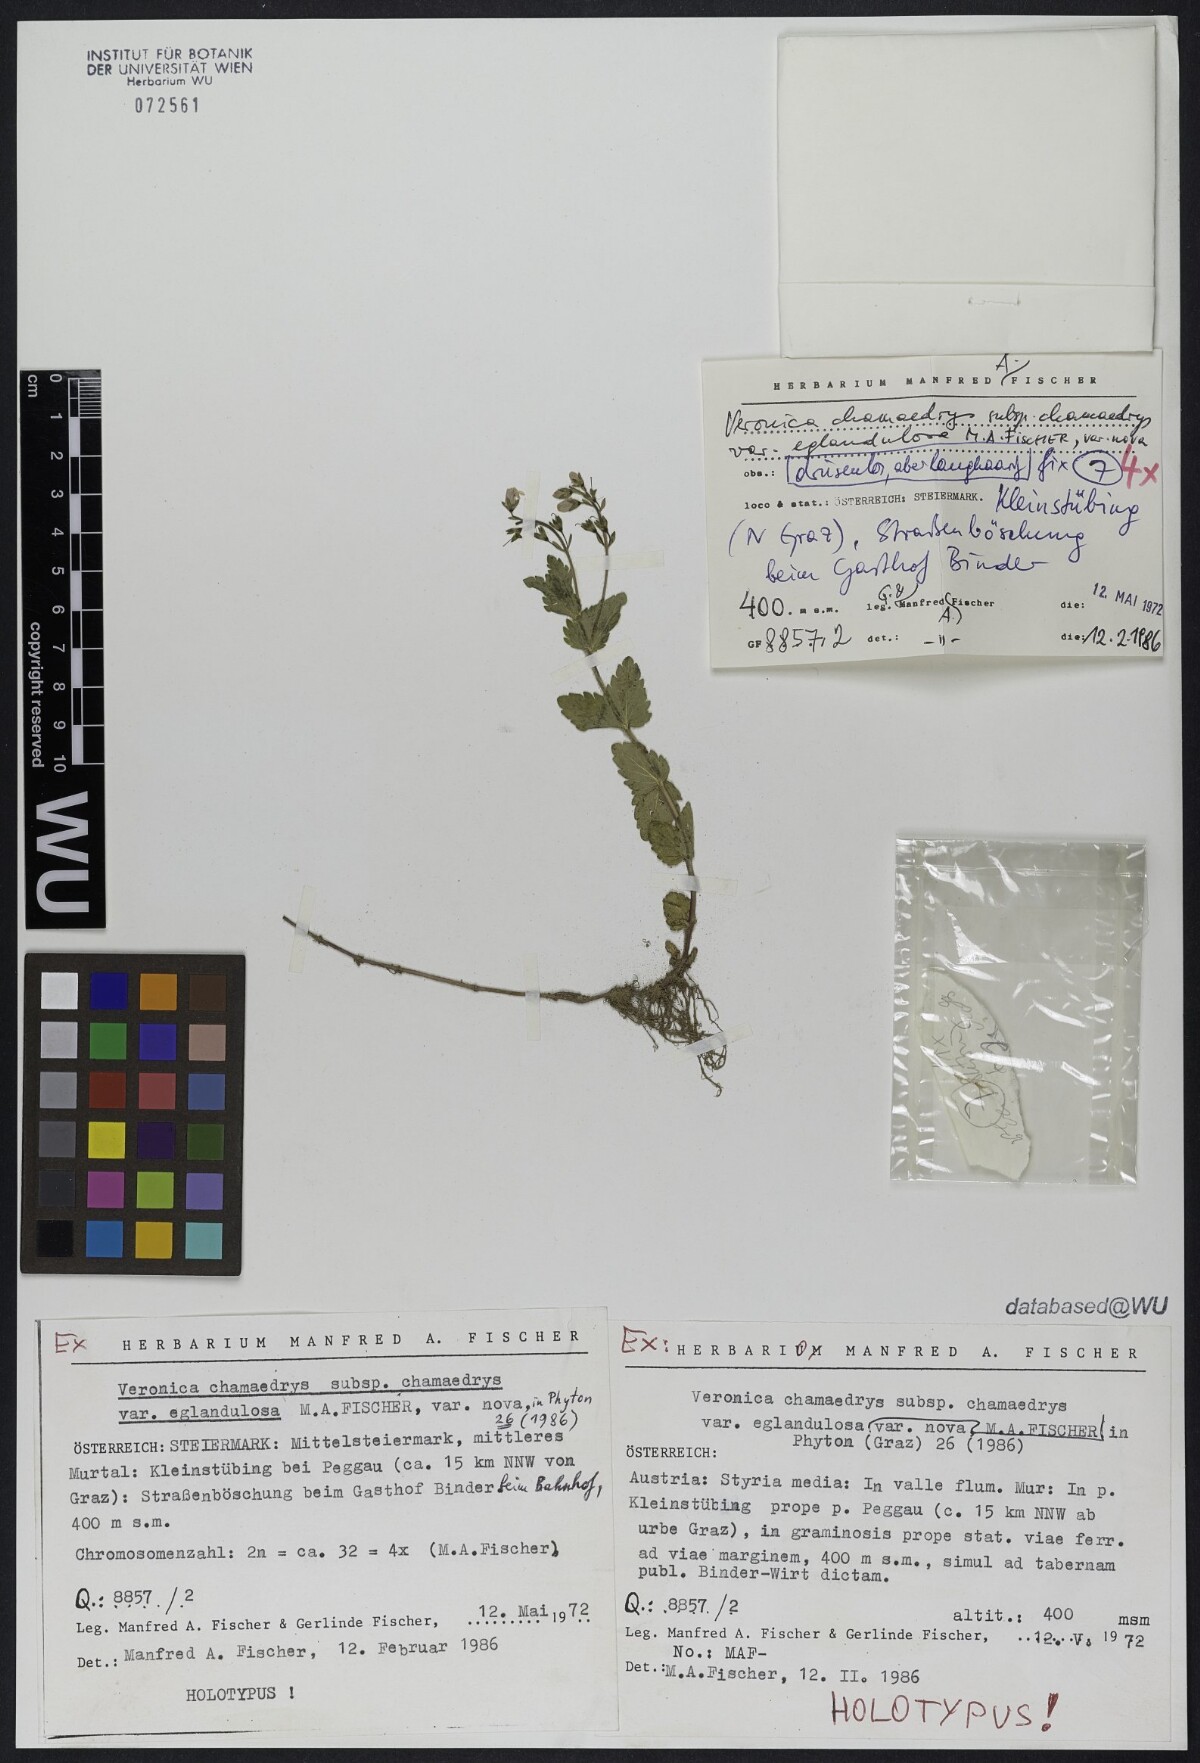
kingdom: Plantae
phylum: Tracheophyta
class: Magnoliopsida
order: Lamiales
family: Plantaginaceae
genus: Veronica
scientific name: Veronica chamaedrys
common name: Germander speedwell
